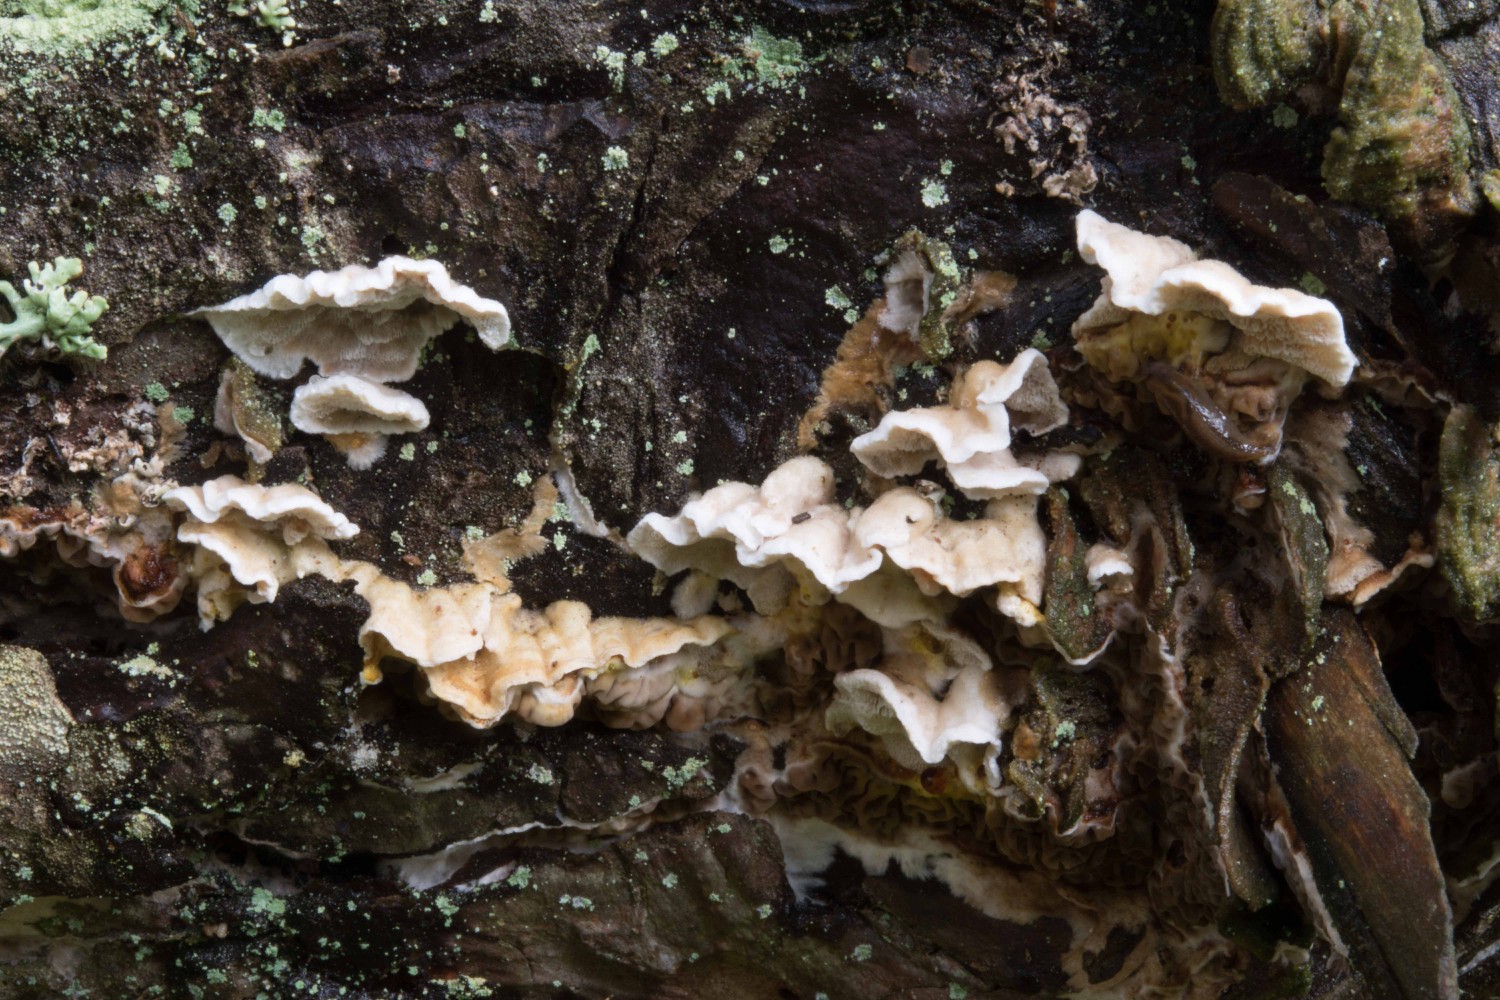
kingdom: Fungi
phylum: Basidiomycota
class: Agaricomycetes
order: Polyporales
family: Incrustoporiaceae
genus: Skeletocutis
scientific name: Skeletocutis carneogrisea
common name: rødgrå krystalporesvamp
